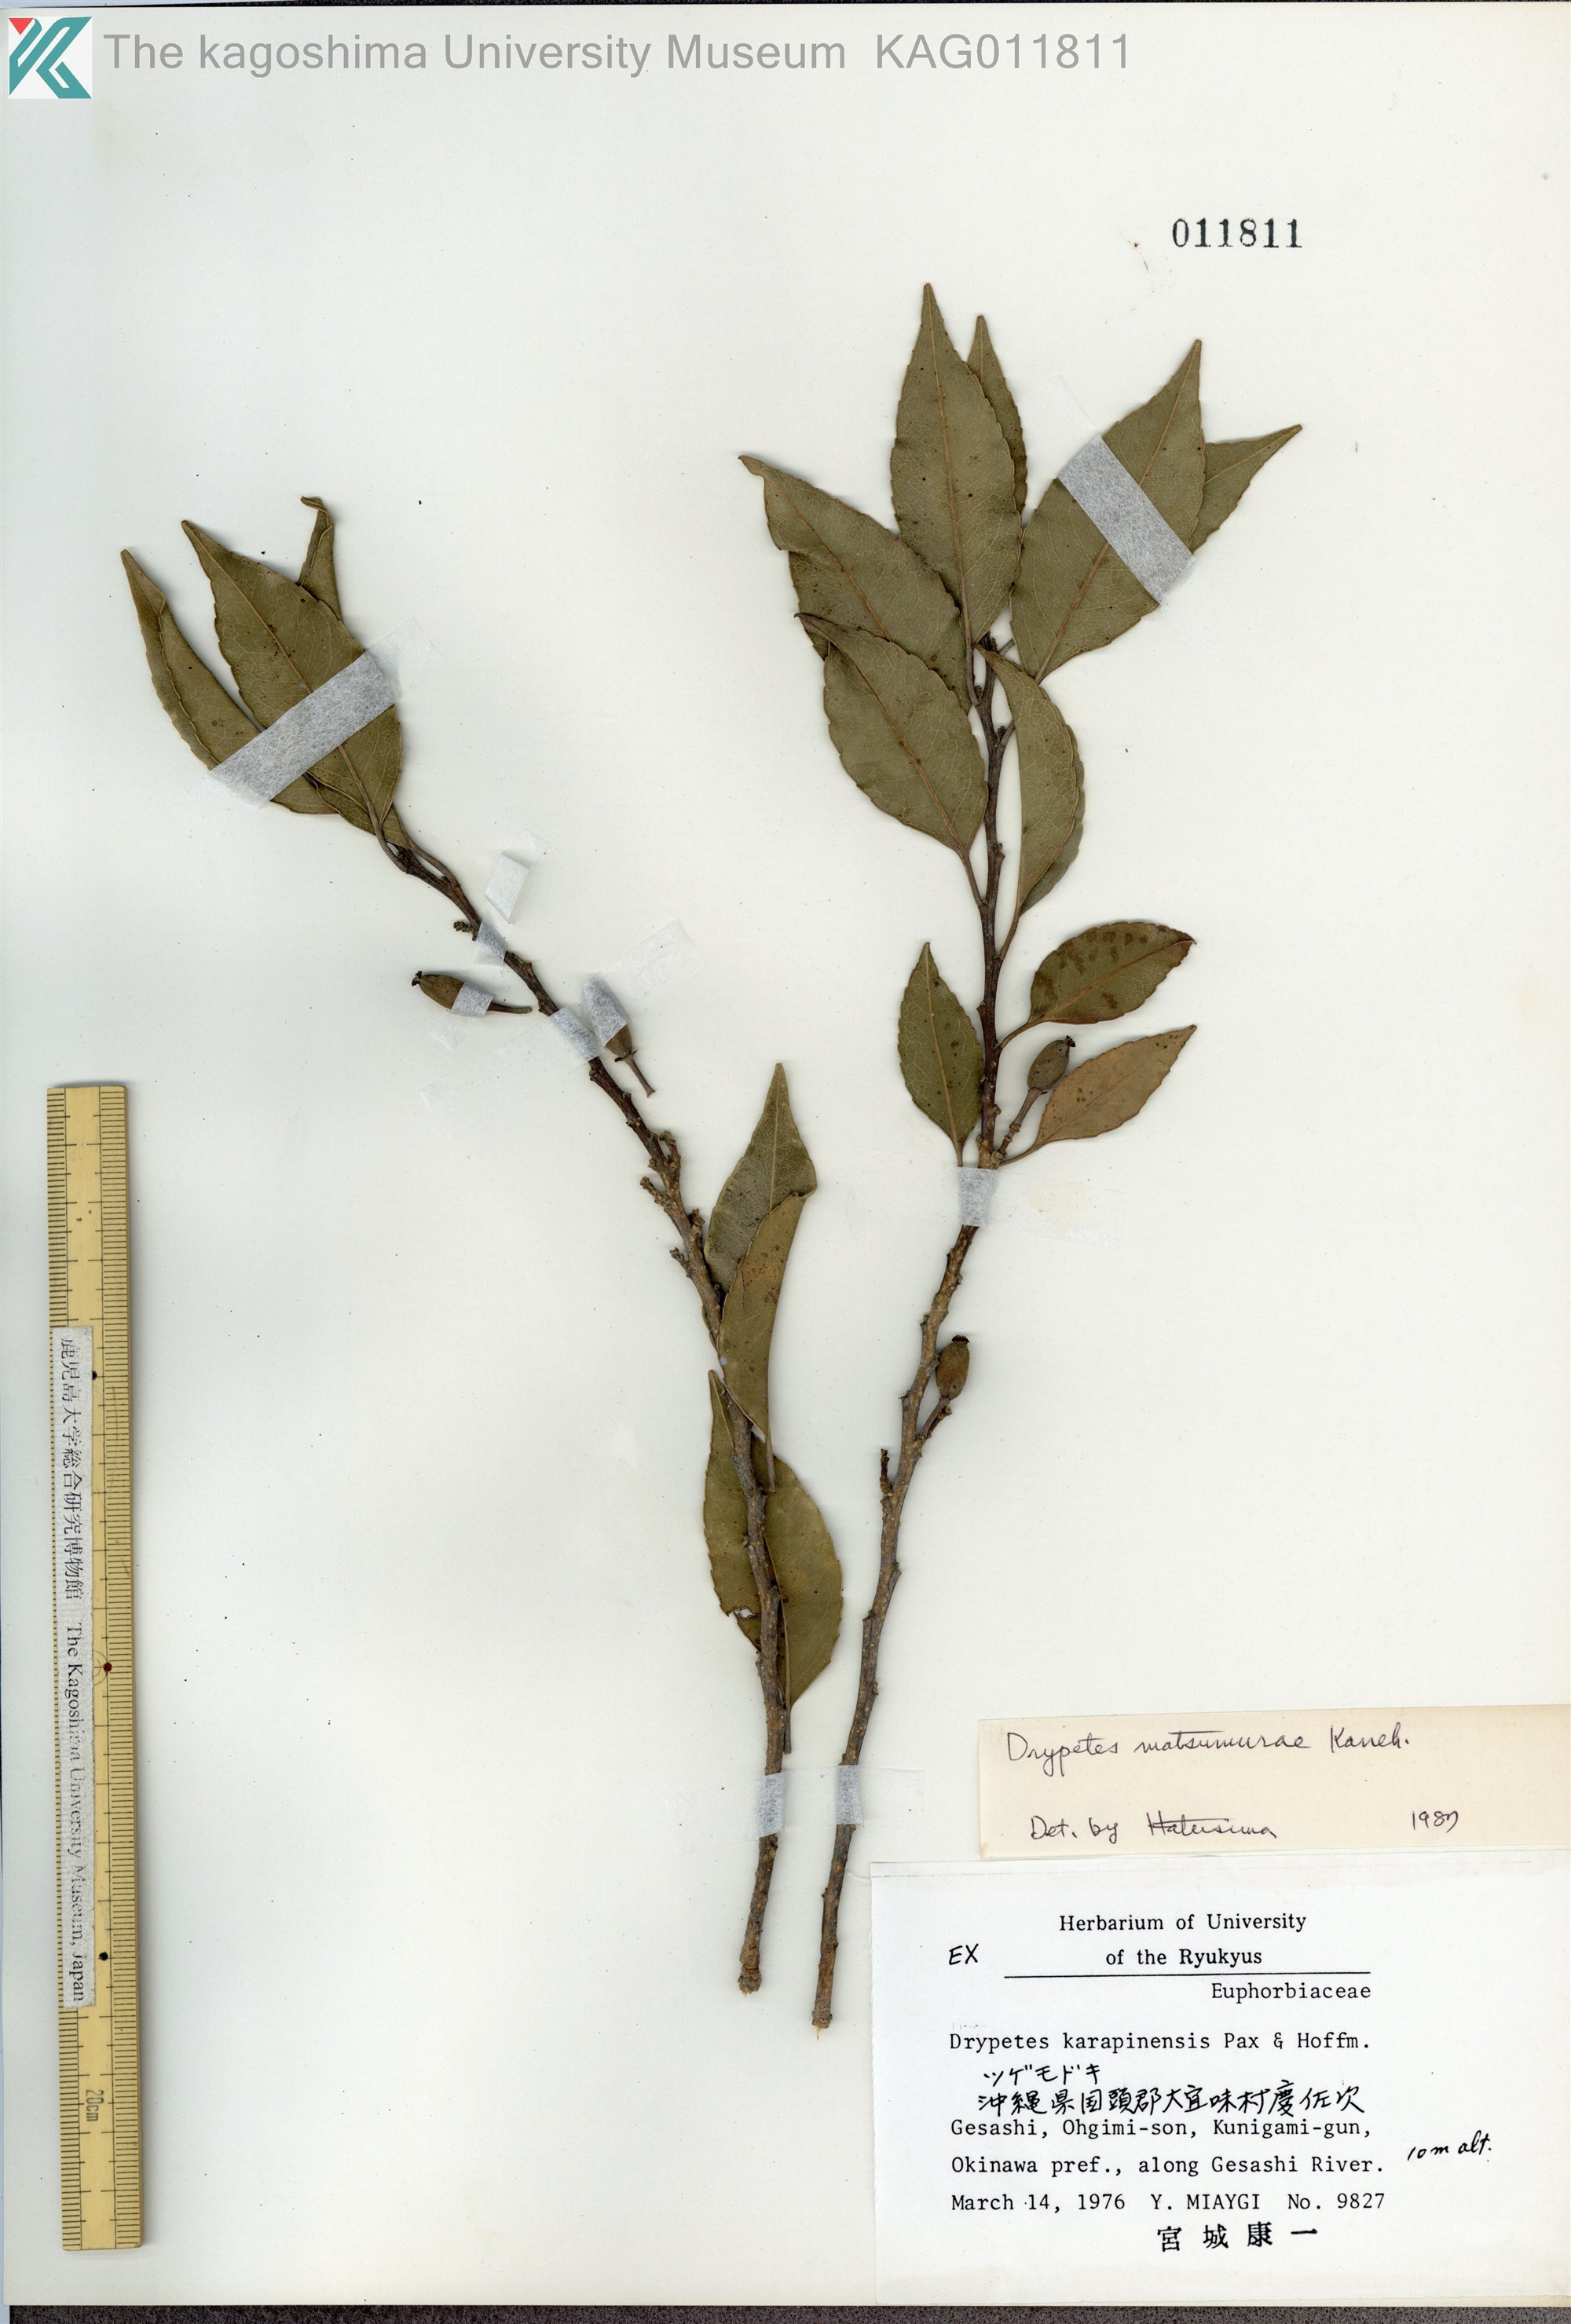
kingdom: Plantae
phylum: Tracheophyta
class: Magnoliopsida
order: Malpighiales
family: Putranjivaceae
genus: Putranjiva
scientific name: Putranjiva matsumurae
